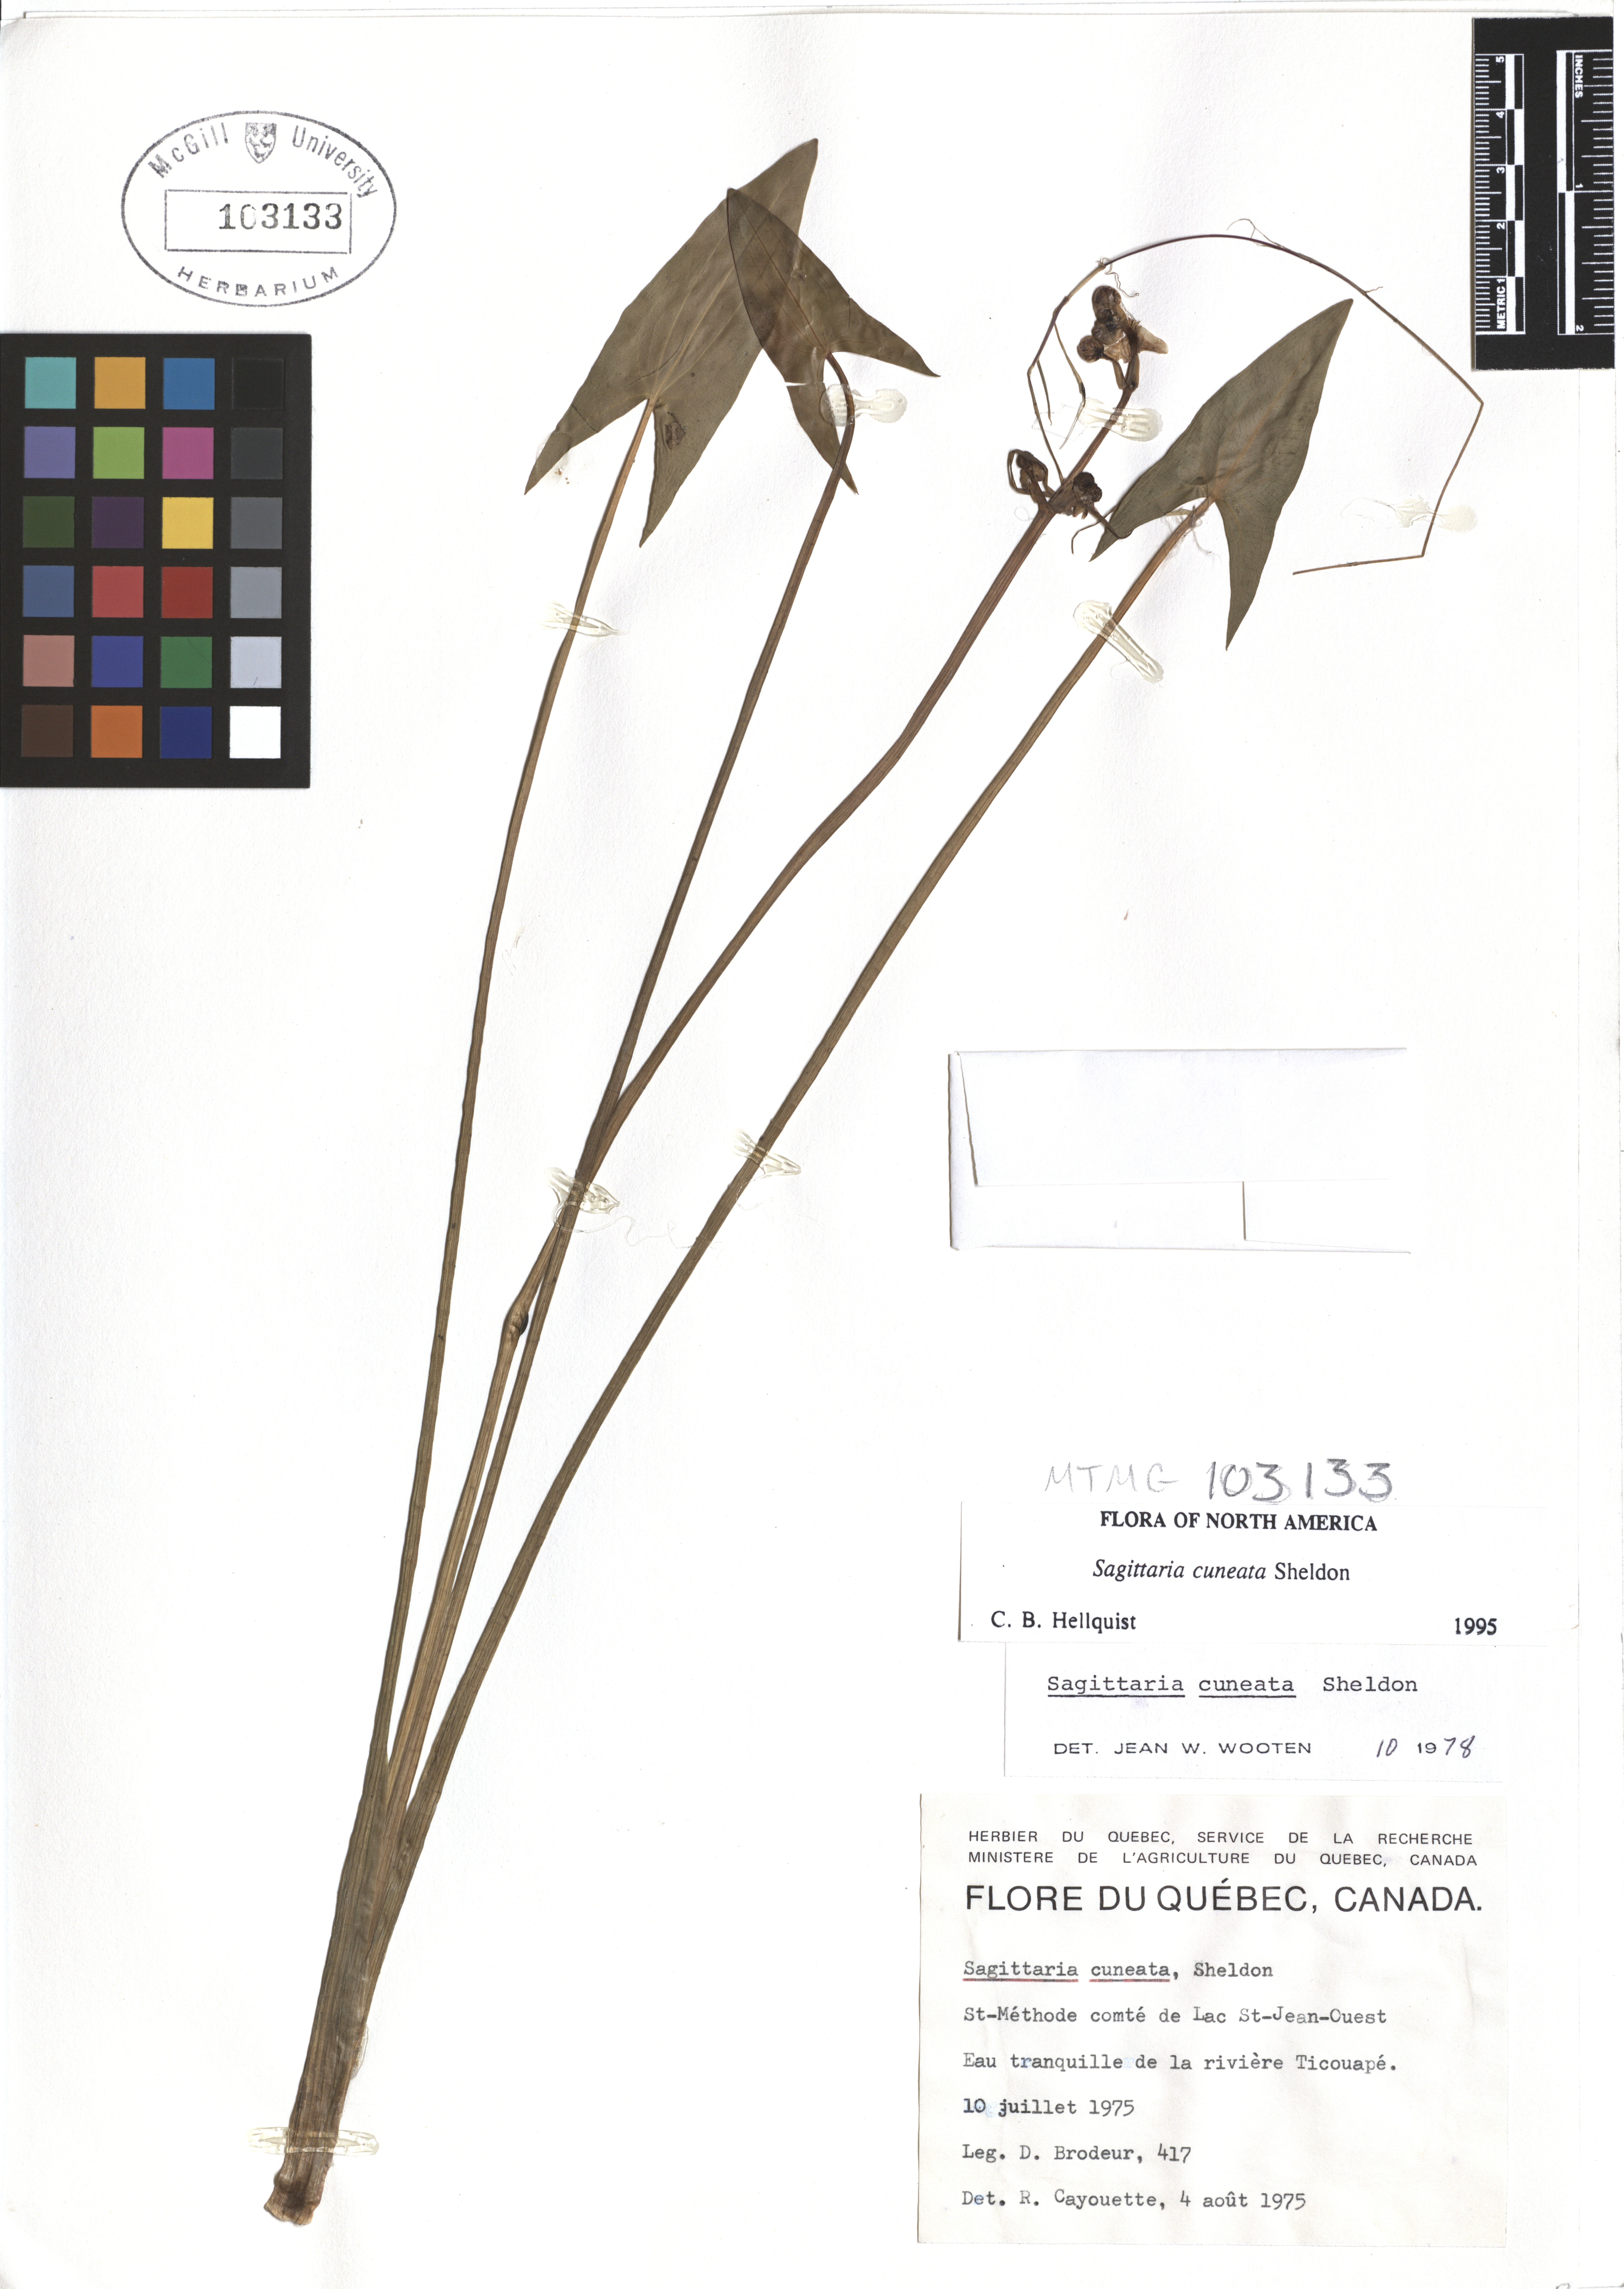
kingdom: Plantae
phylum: Tracheophyta
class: Liliopsida
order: Alismatales
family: Alismataceae
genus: Sagittaria
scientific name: Sagittaria cuneata
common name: Northern arrowhead
